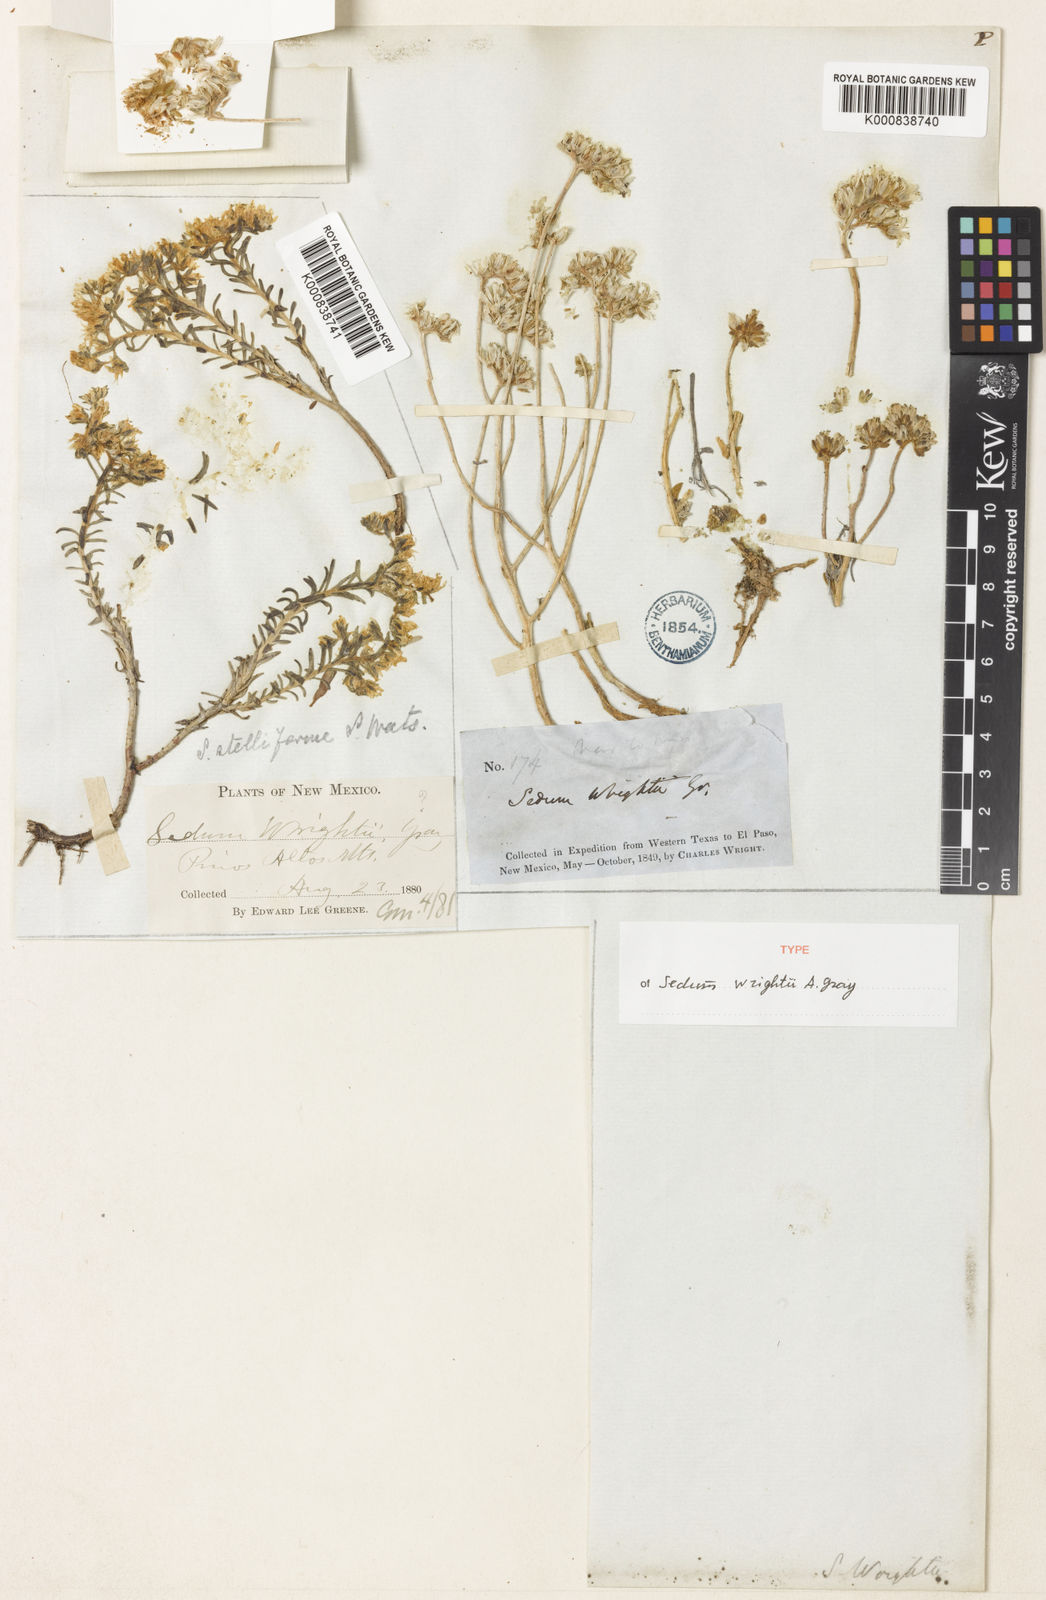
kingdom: Plantae
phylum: Tracheophyta
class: Magnoliopsida
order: Saxifragales
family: Crassulaceae
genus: Sedum
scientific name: Sedum wrightii
